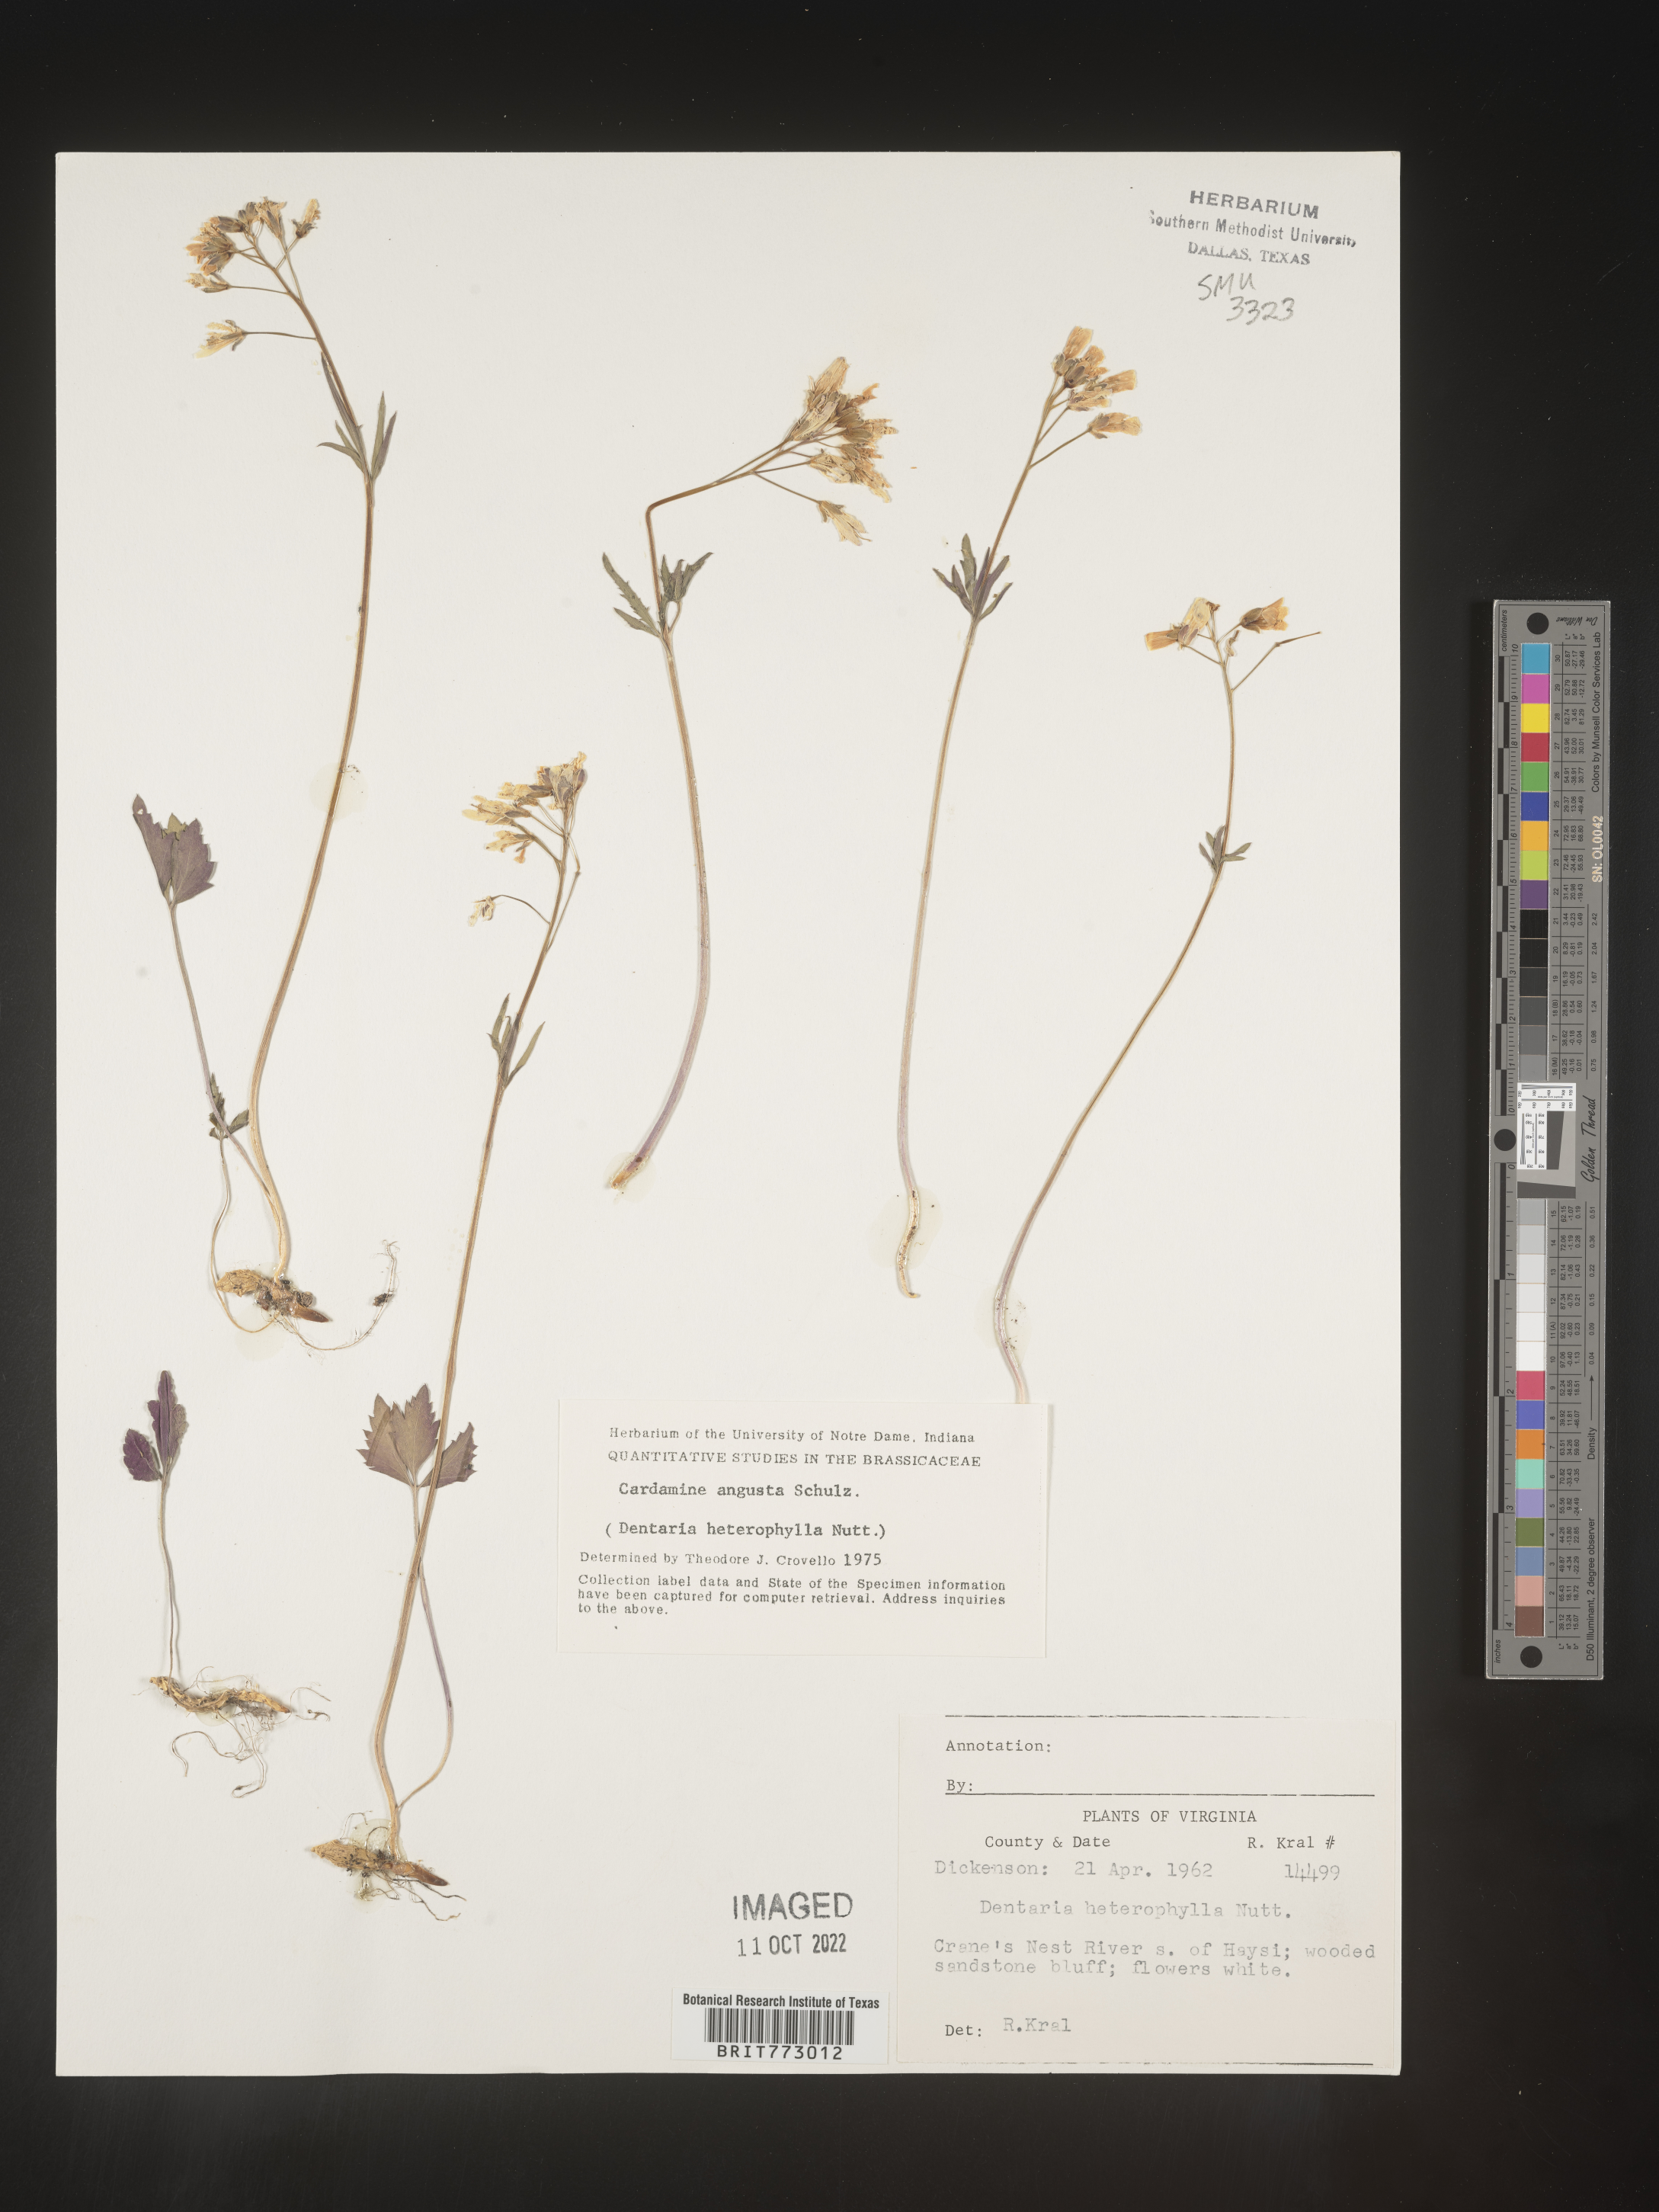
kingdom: Plantae
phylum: Tracheophyta
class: Magnoliopsida
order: Brassicales
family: Brassicaceae
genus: Cardamine
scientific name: Cardamine angustata
